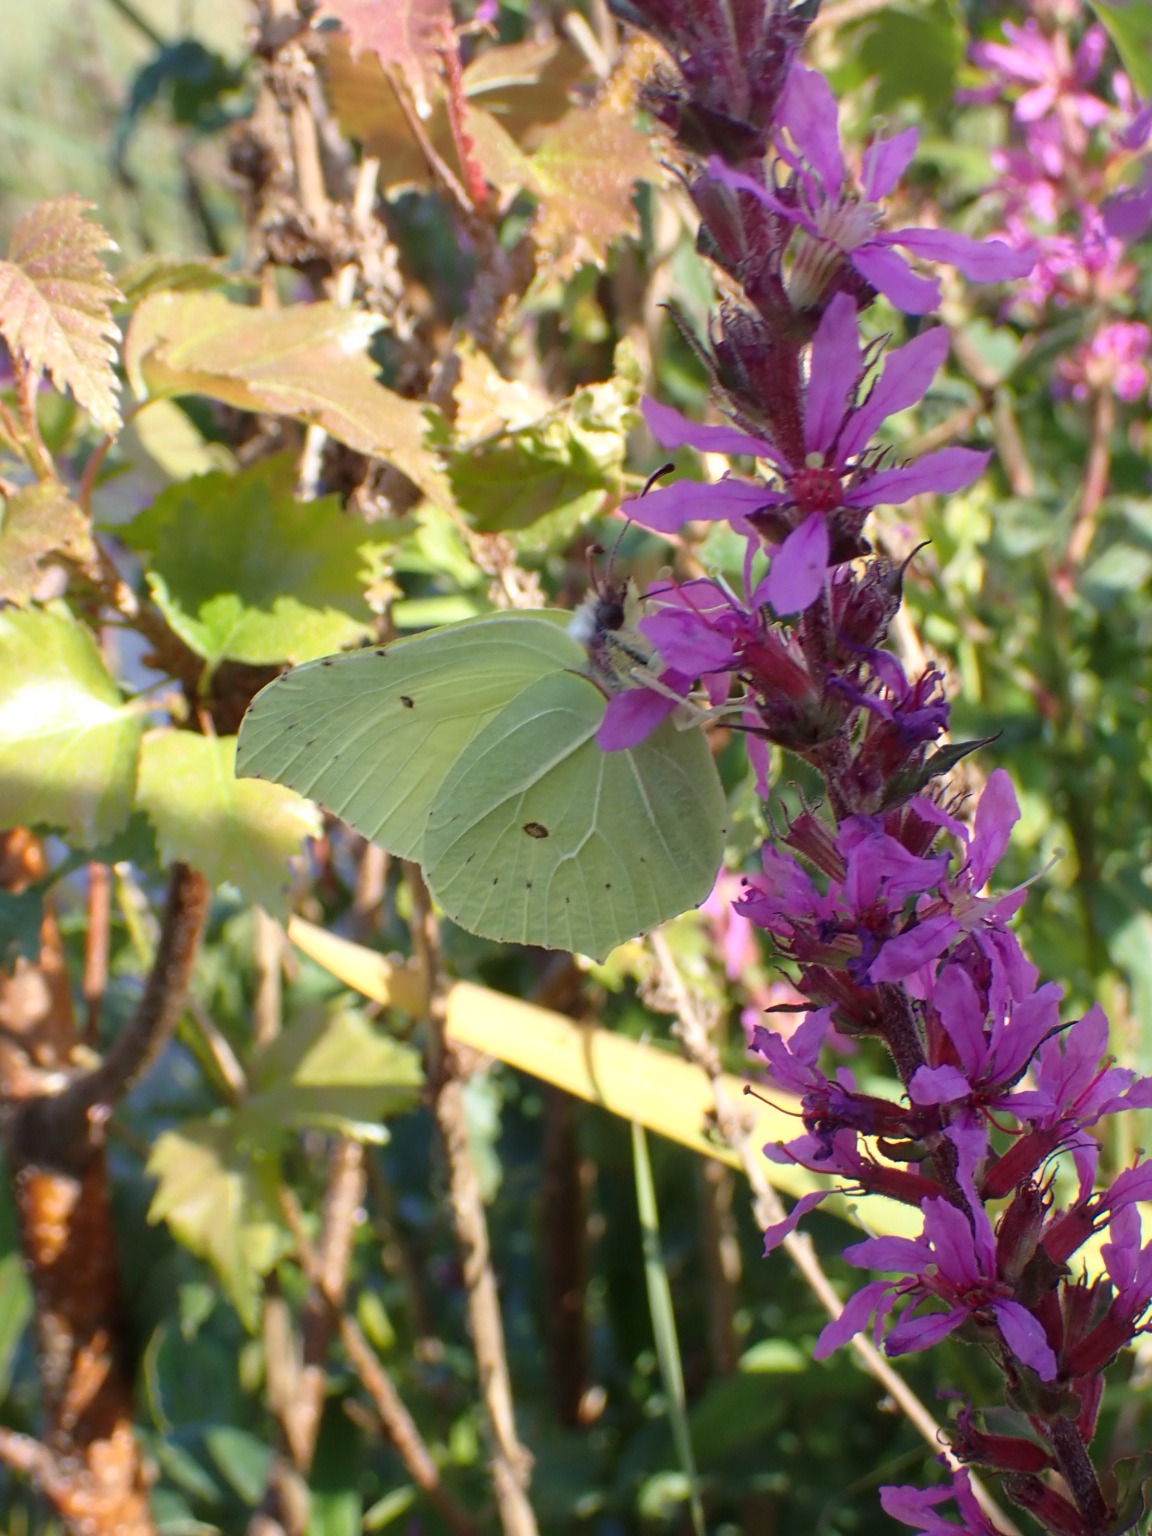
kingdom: Animalia
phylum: Arthropoda
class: Insecta
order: Lepidoptera
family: Pieridae
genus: Gonepteryx
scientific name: Gonepteryx rhamni
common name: Citronsommerfugl
